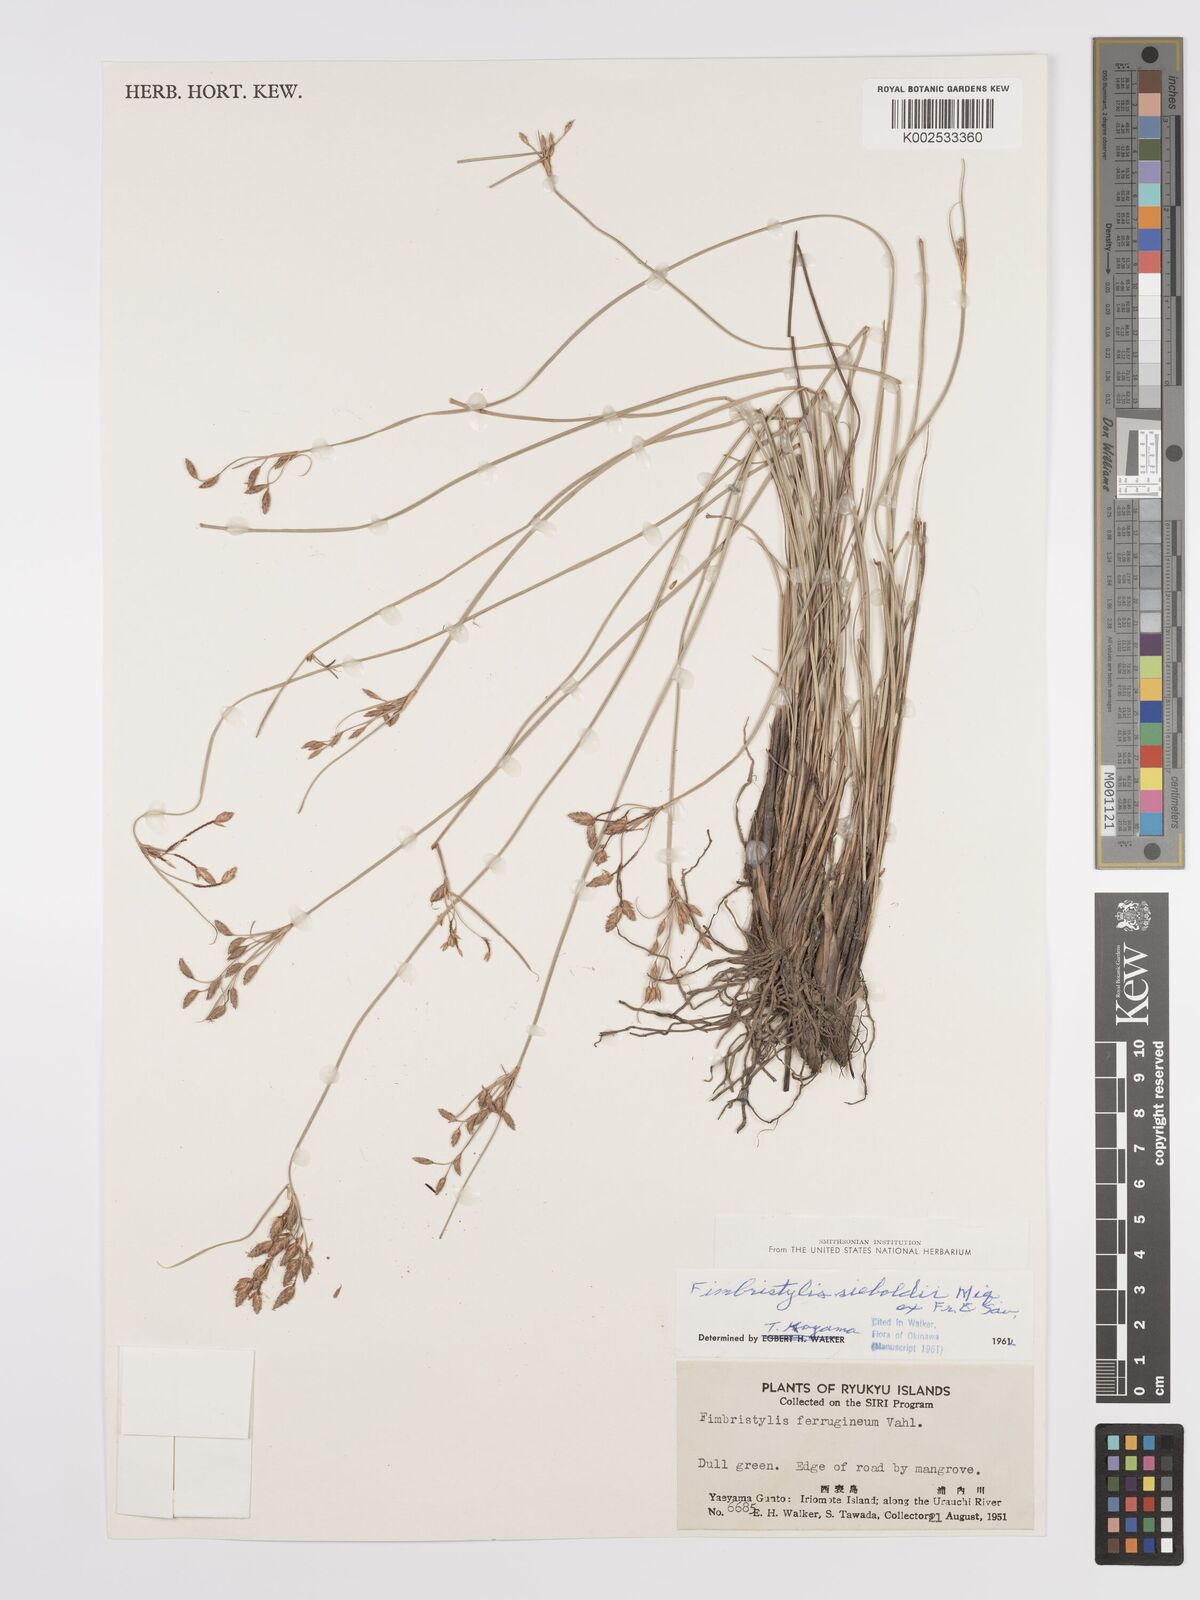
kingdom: Plantae
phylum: Tracheophyta
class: Liliopsida
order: Poales
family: Cyperaceae
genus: Fimbristylis
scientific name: Fimbristylis ferruginea
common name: West indian fimbry
